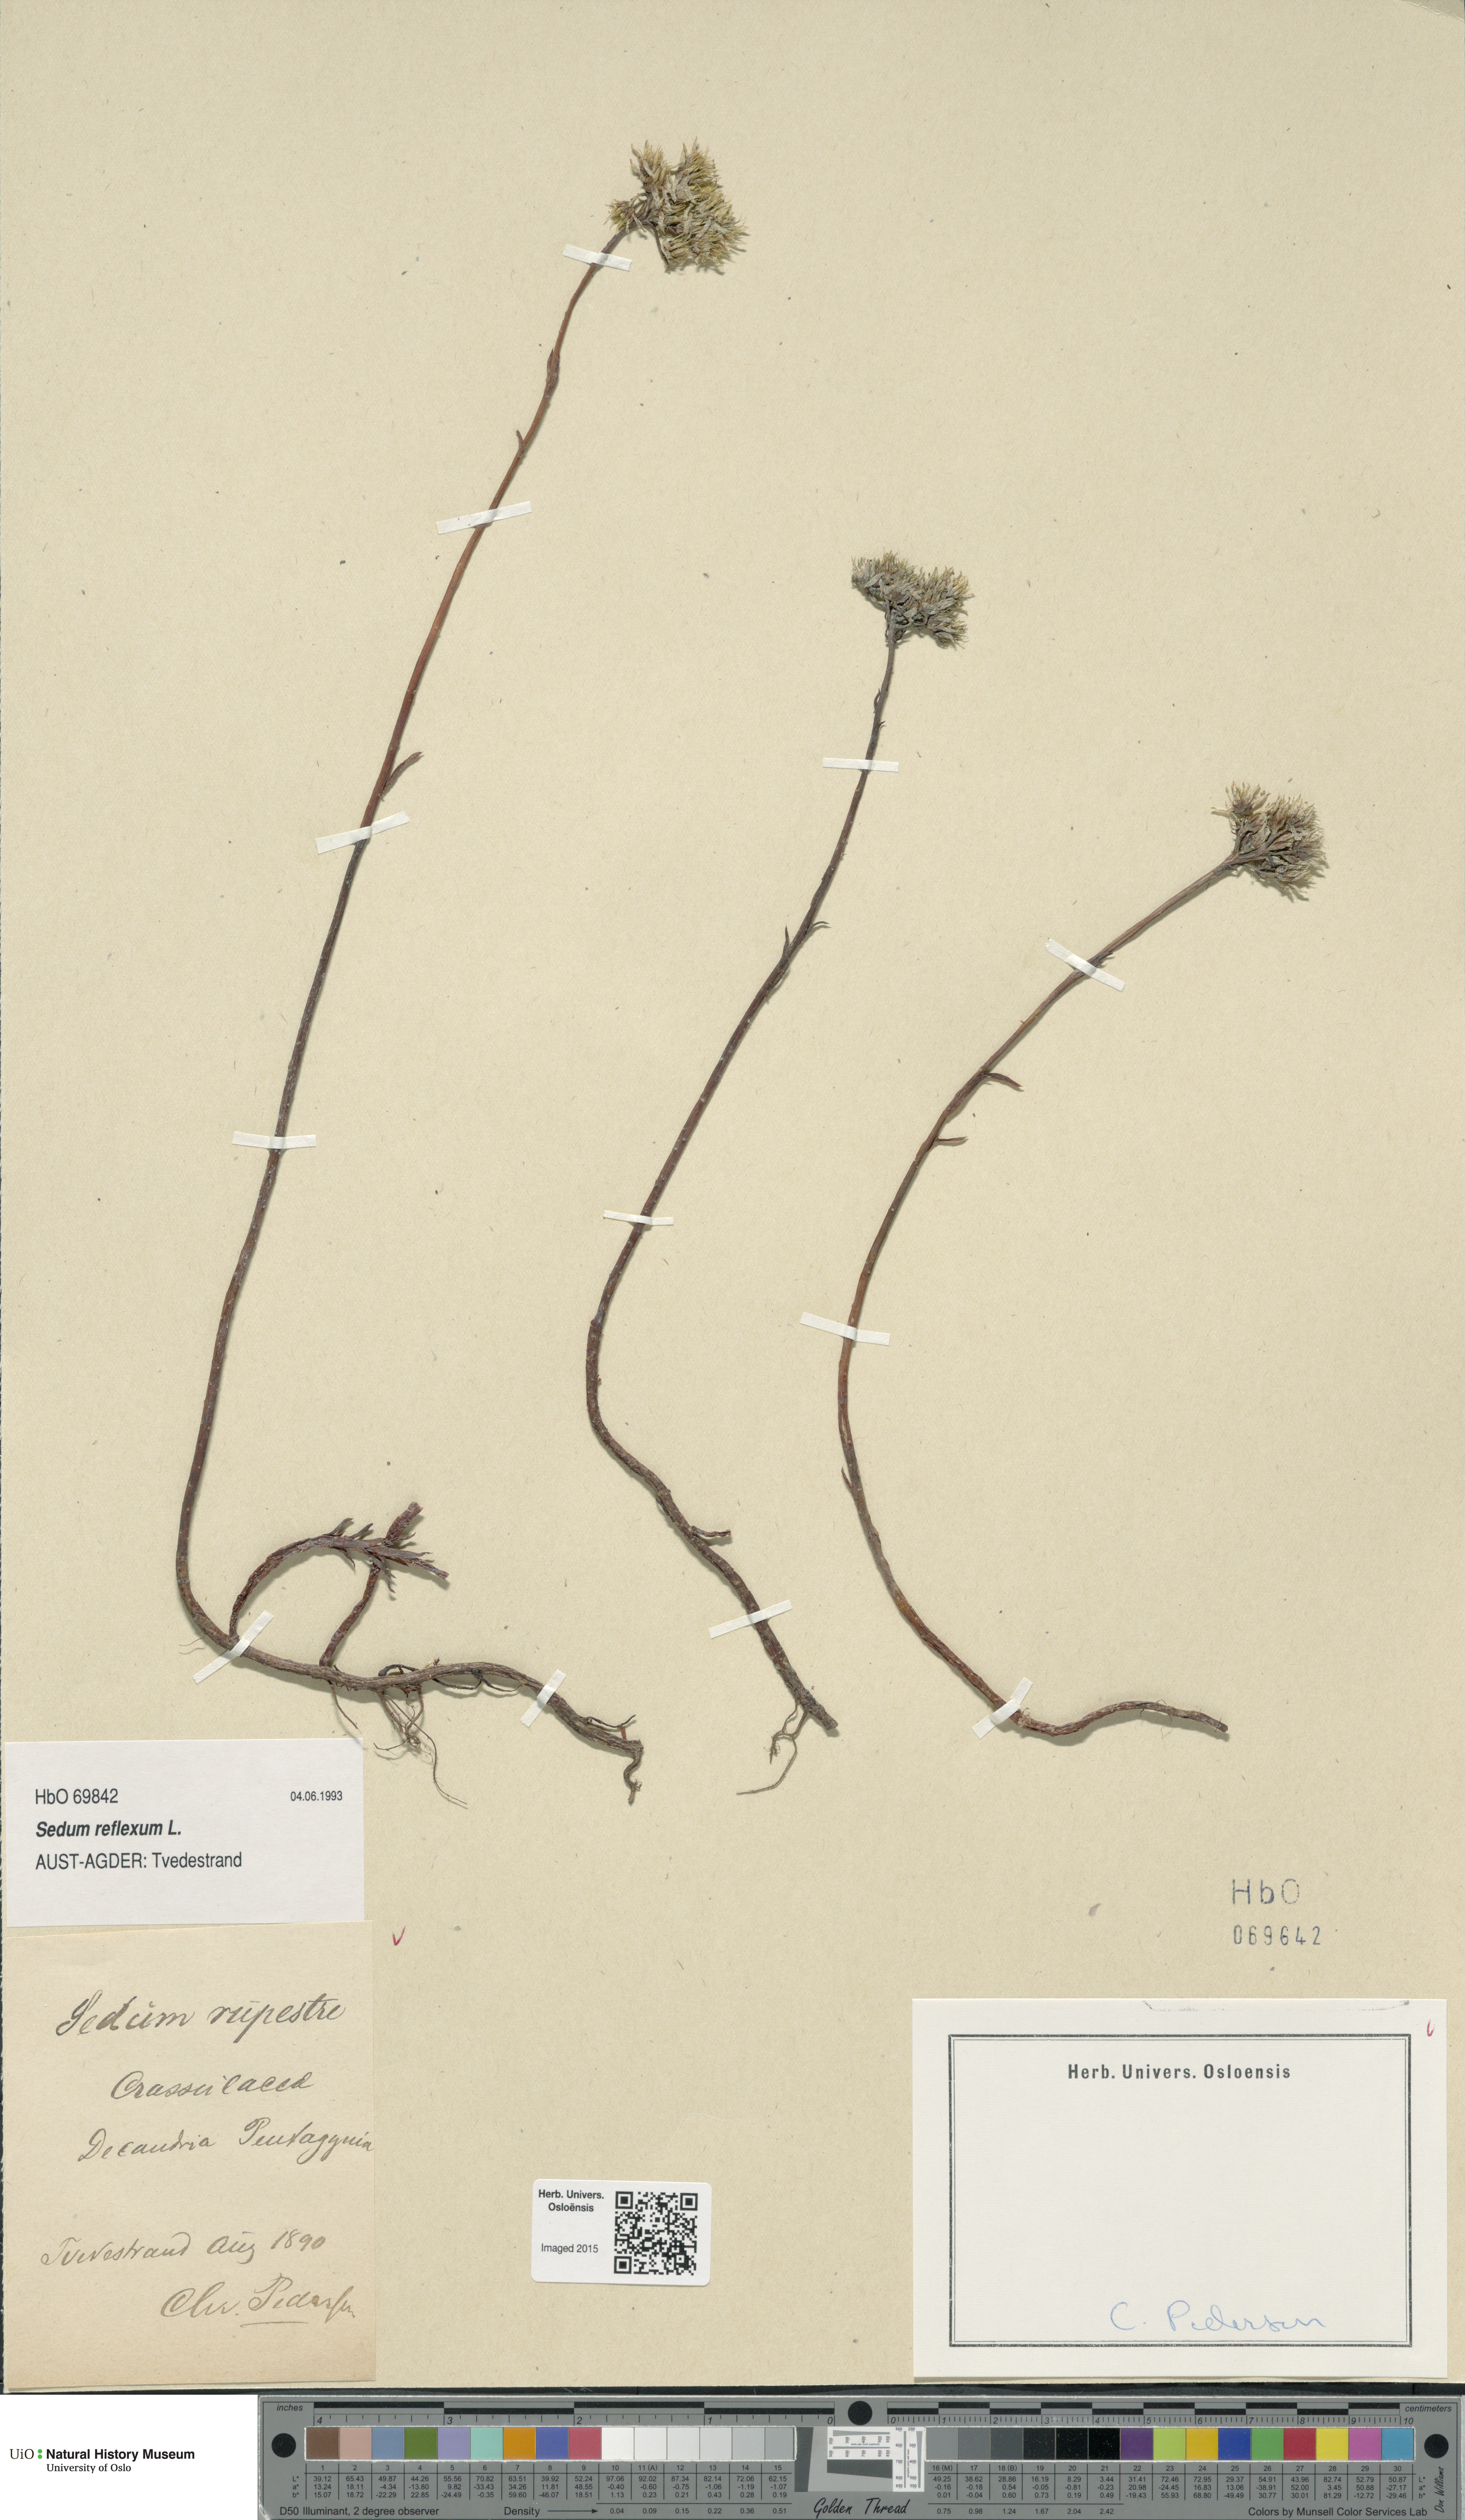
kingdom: Plantae
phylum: Tracheophyta
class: Magnoliopsida
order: Saxifragales
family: Crassulaceae
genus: Petrosedum
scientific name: Petrosedum rupestre
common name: Jenny's stonecrop
